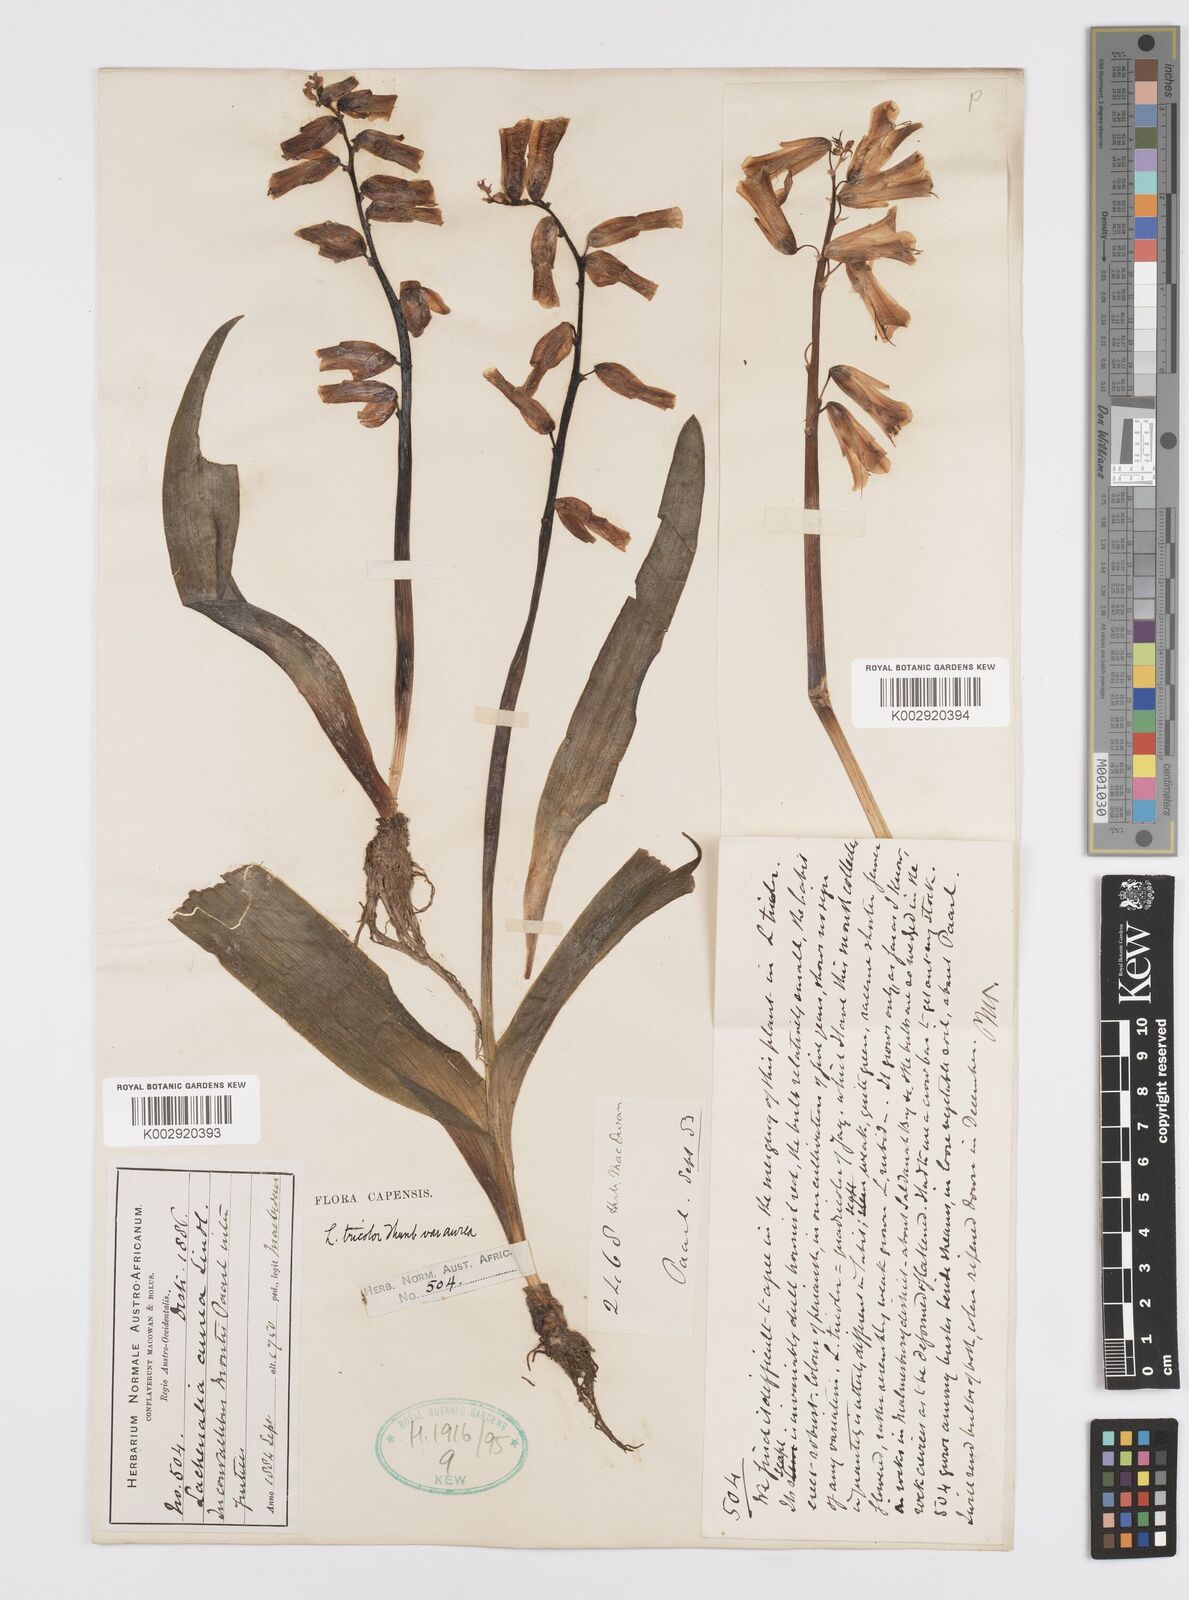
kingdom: Plantae
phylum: Tracheophyta
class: Liliopsida
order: Asparagales
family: Asparagaceae
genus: Lachenalia
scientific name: Lachenalia
